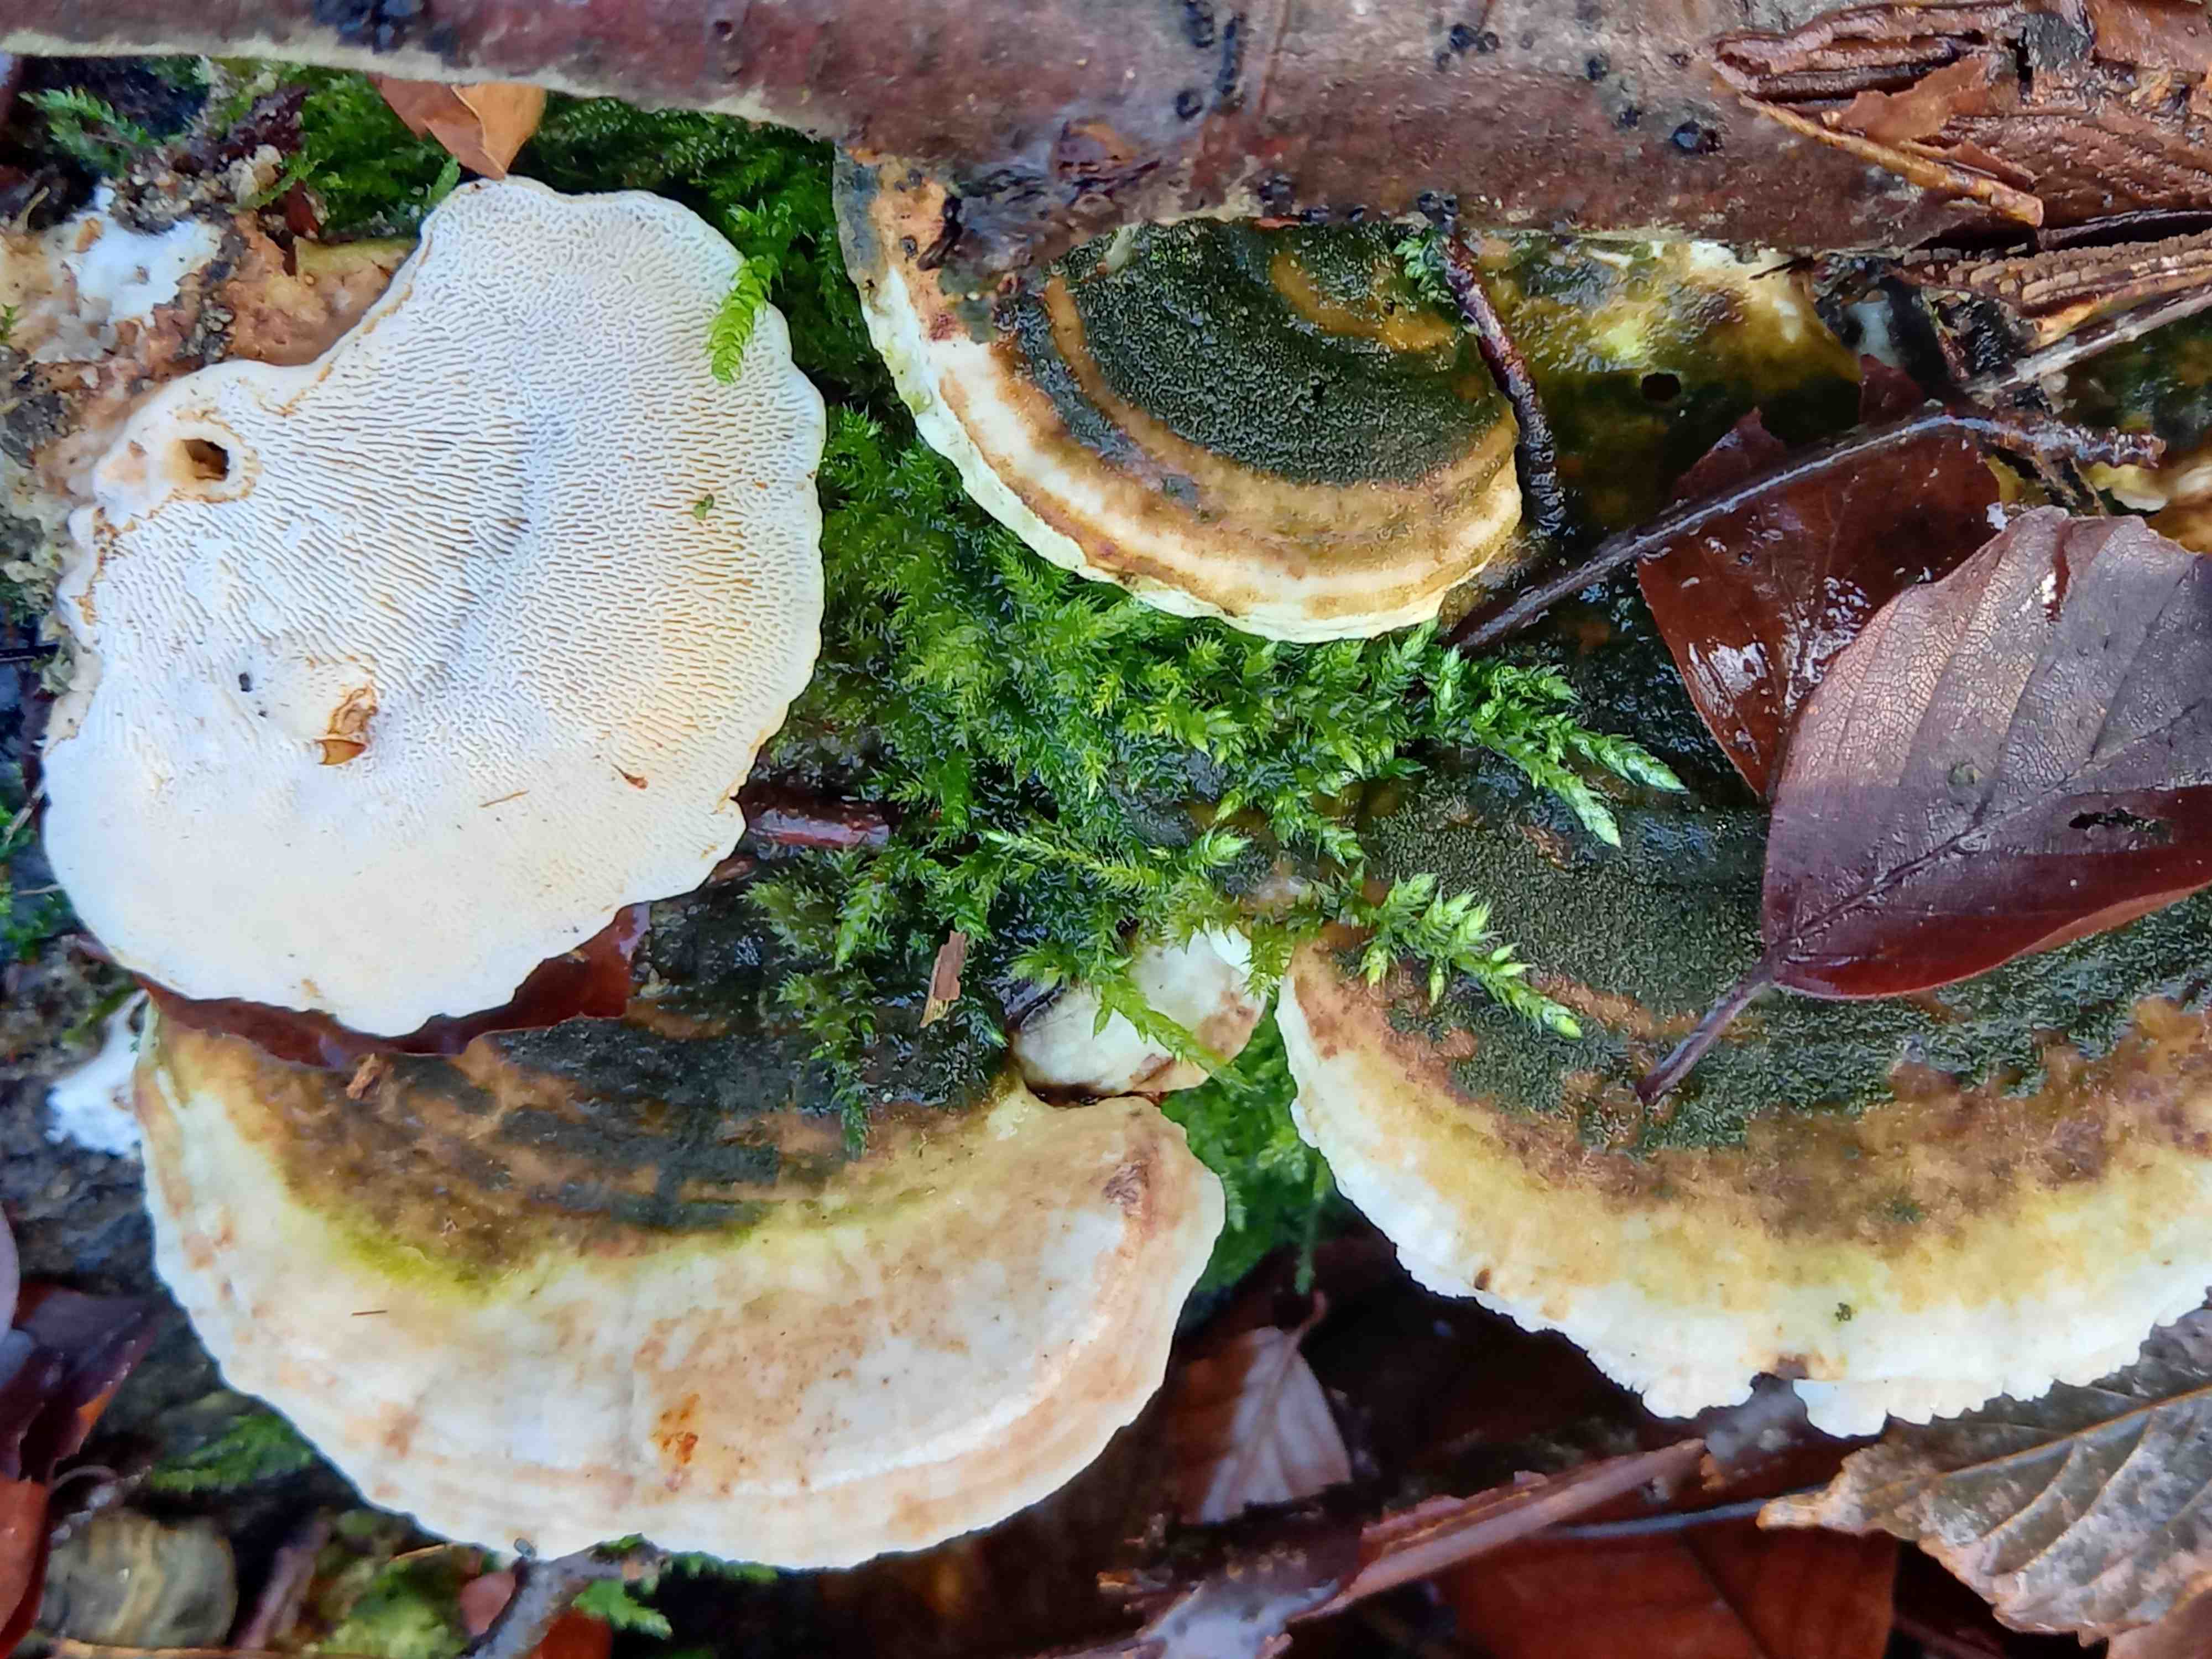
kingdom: Fungi
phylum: Basidiomycota
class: Agaricomycetes
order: Polyporales
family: Polyporaceae
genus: Trametes
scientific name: Trametes gibbosa
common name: puklet læderporesvamp
